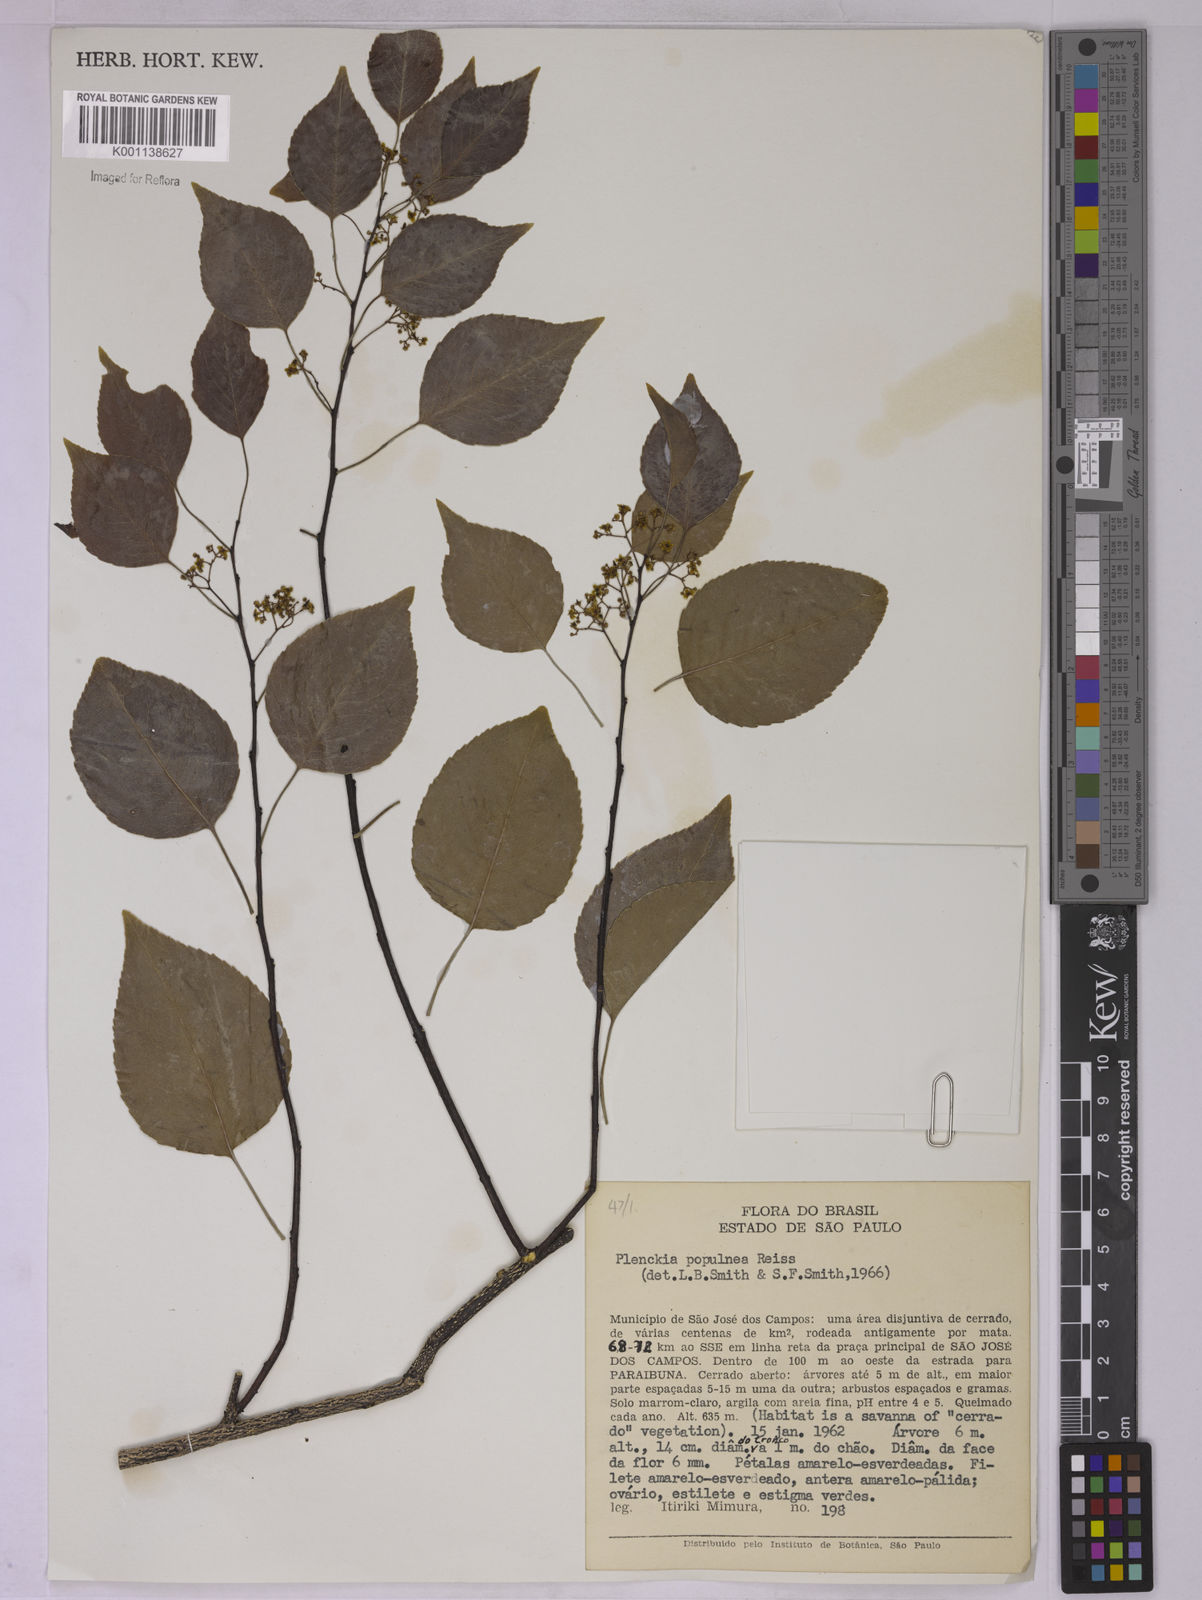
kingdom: Plantae
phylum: Tracheophyta
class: Magnoliopsida
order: Celastrales
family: Celastraceae
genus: Plenckia
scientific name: Plenckia populnea
